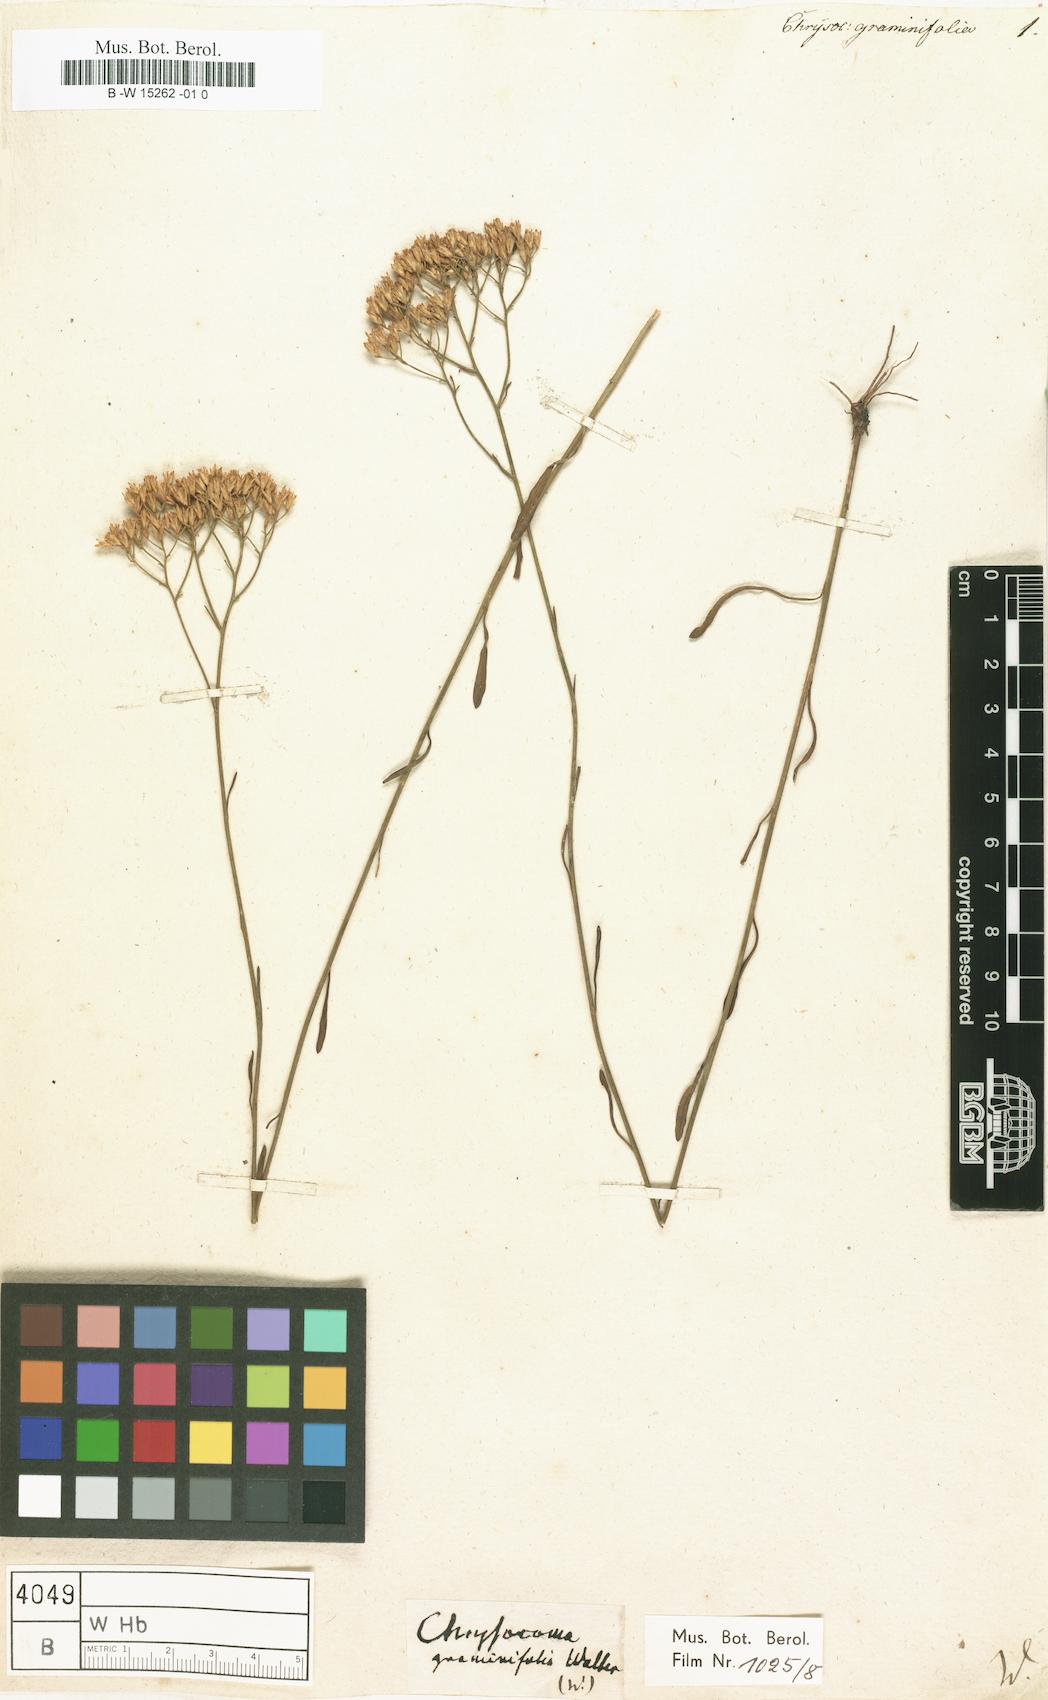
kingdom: Plantae
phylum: Tracheophyta
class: Magnoliopsida
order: Asterales
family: Asteraceae
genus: Euthamia
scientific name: Euthamia graminifolia
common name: Common goldentop
